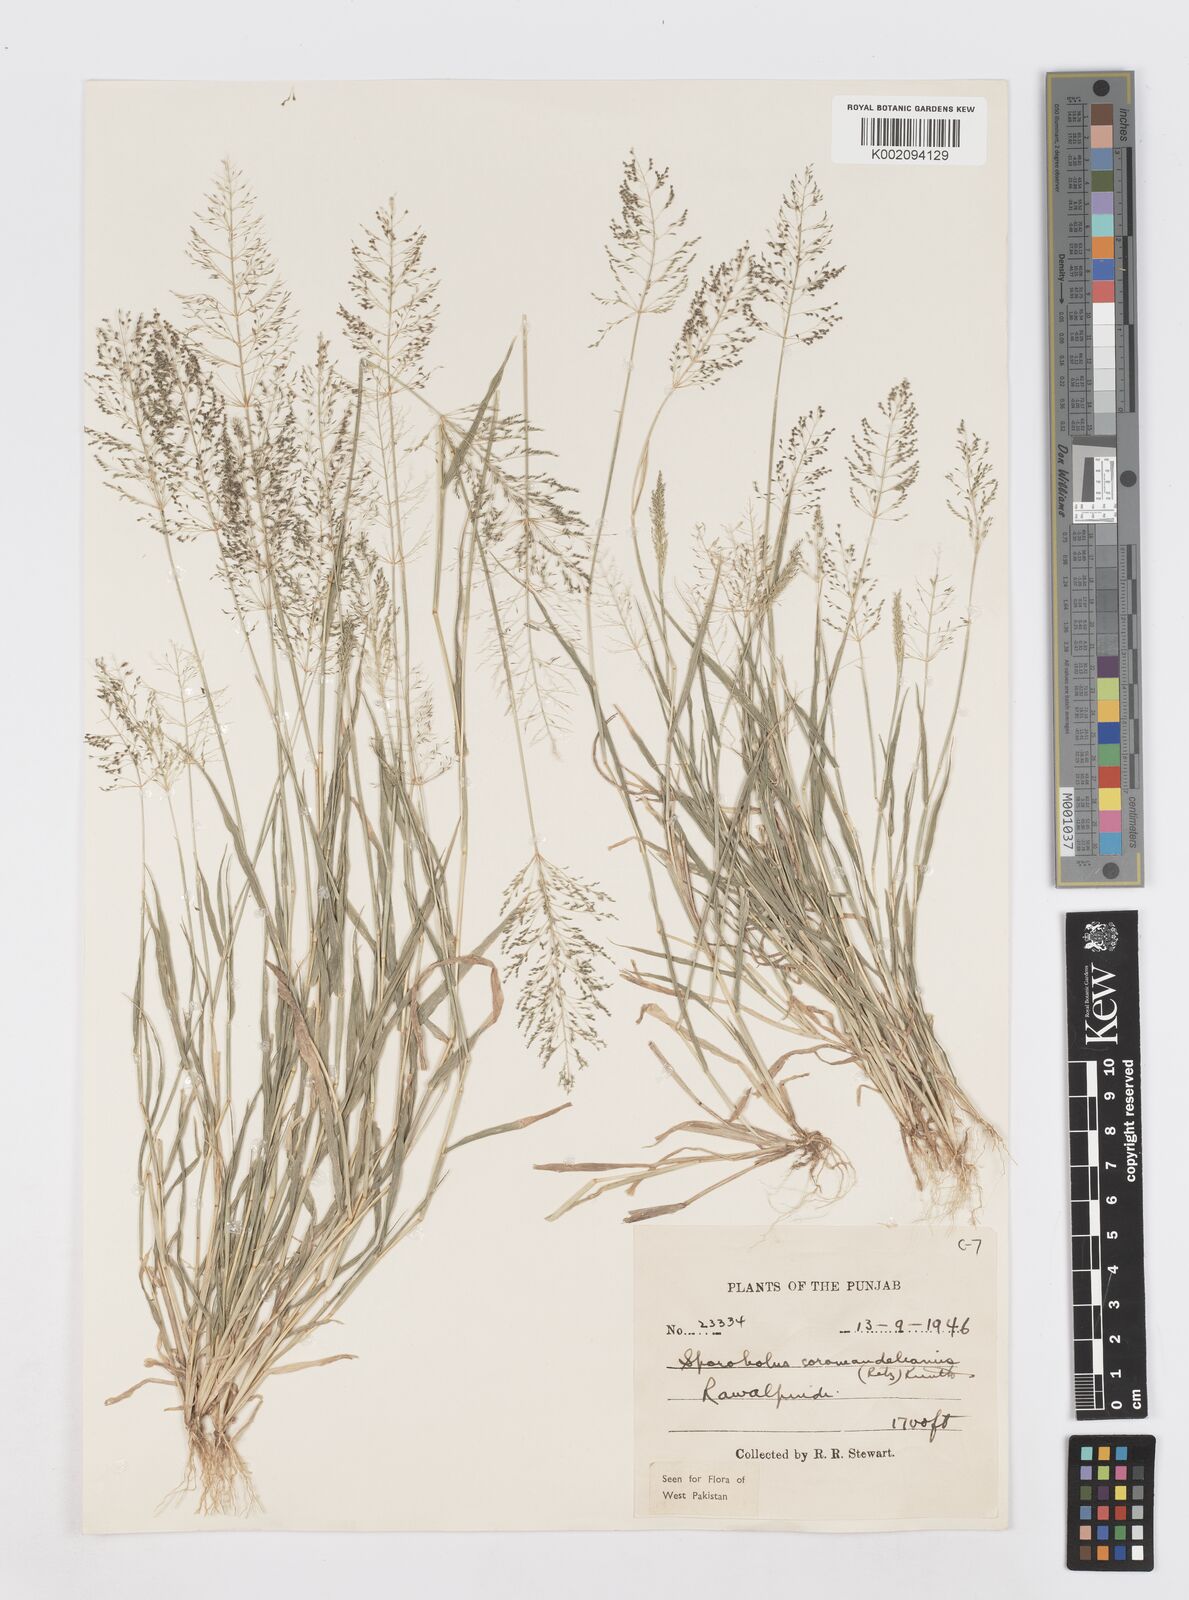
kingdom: Plantae
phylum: Tracheophyta
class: Liliopsida
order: Poales
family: Poaceae
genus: Sporobolus
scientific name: Sporobolus coromandelianus
